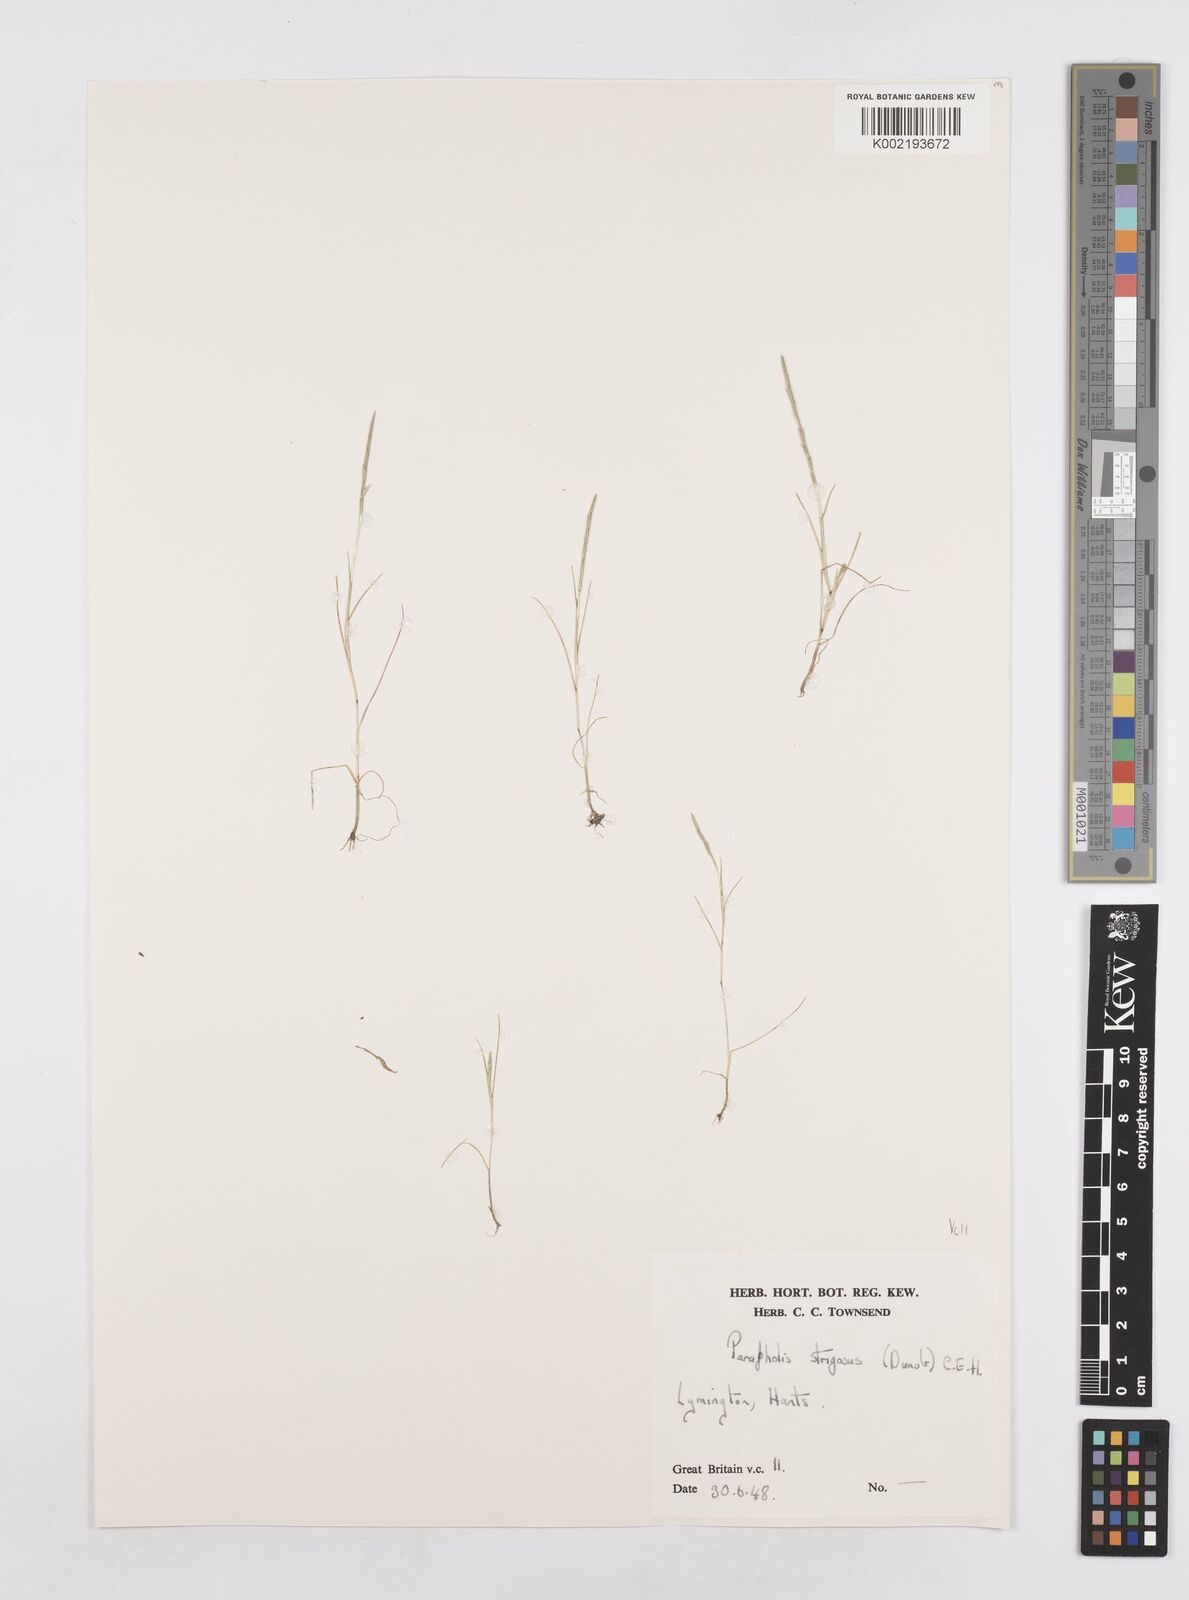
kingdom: Plantae
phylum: Tracheophyta
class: Liliopsida
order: Poales
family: Poaceae
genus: Parapholis
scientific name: Parapholis strigosa
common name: Hard-grass
